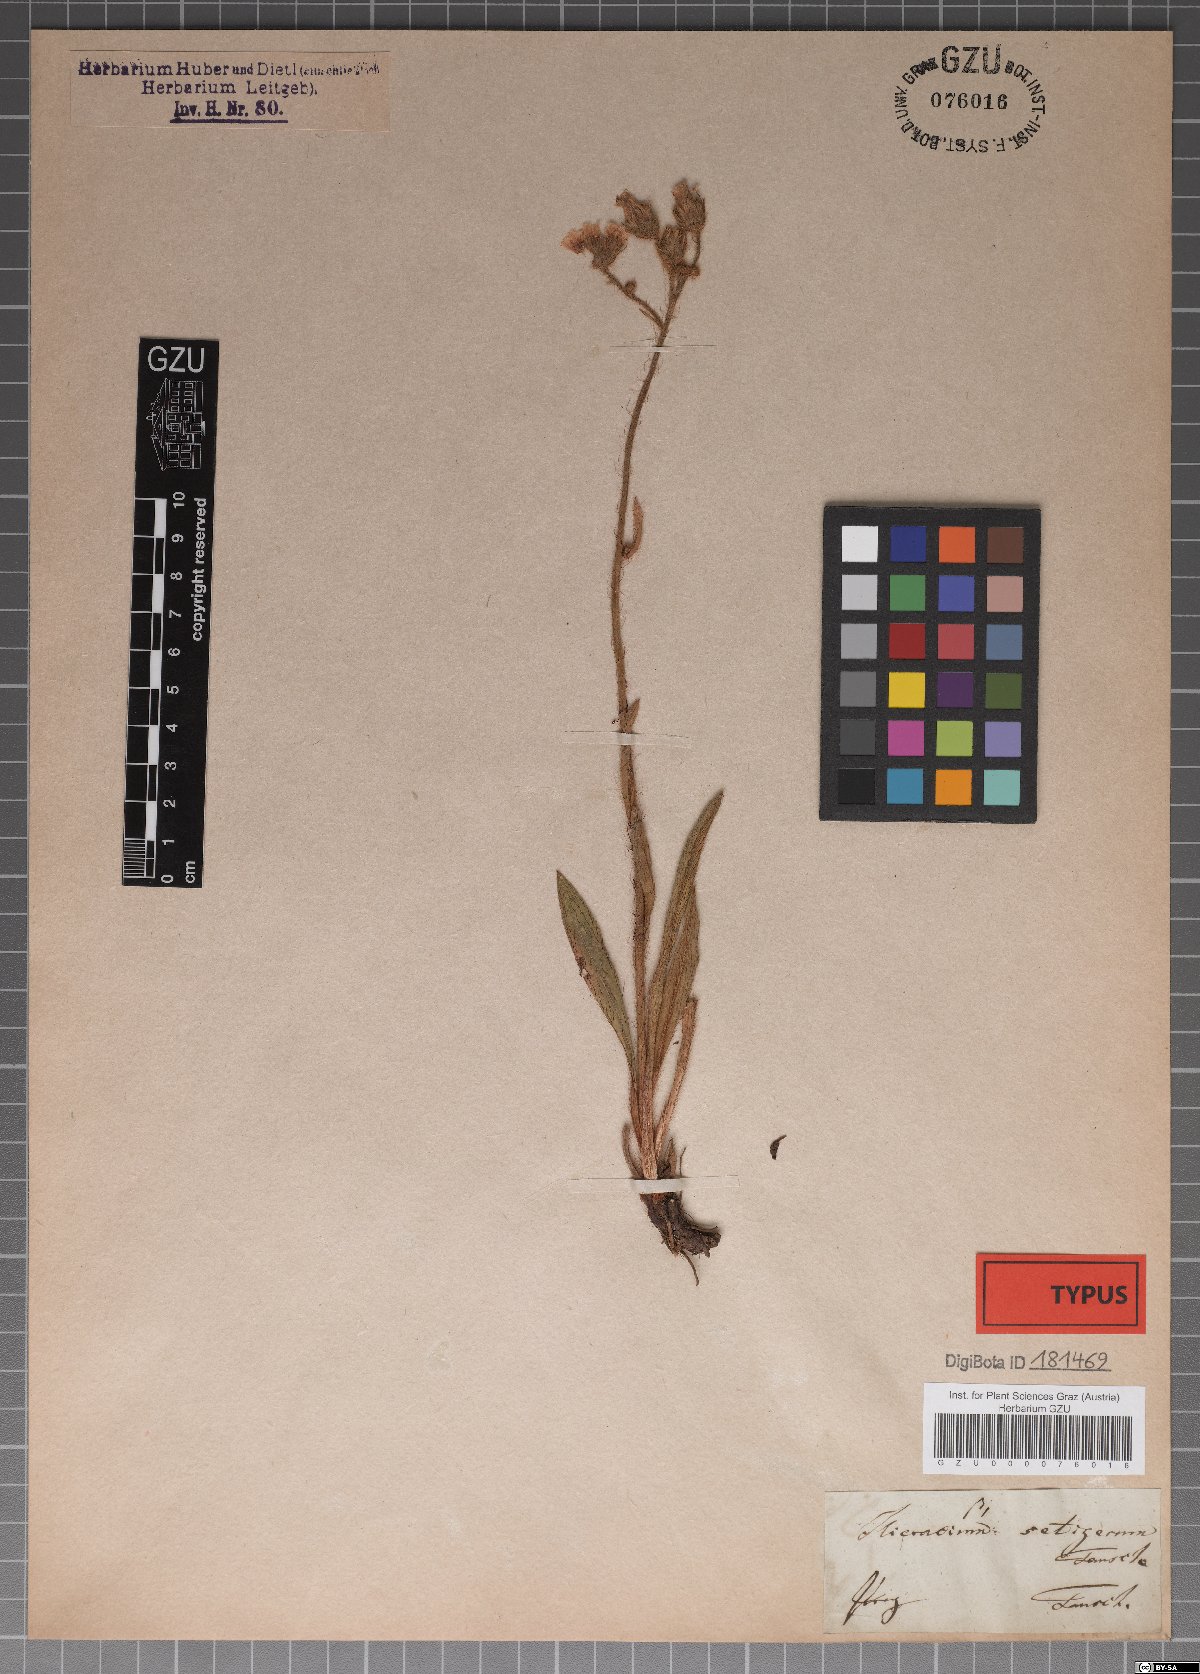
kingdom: Plantae
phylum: Tracheophyta
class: Magnoliopsida
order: Asterales
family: Asteraceae
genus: Hieracium
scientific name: Hieracium setigerum
